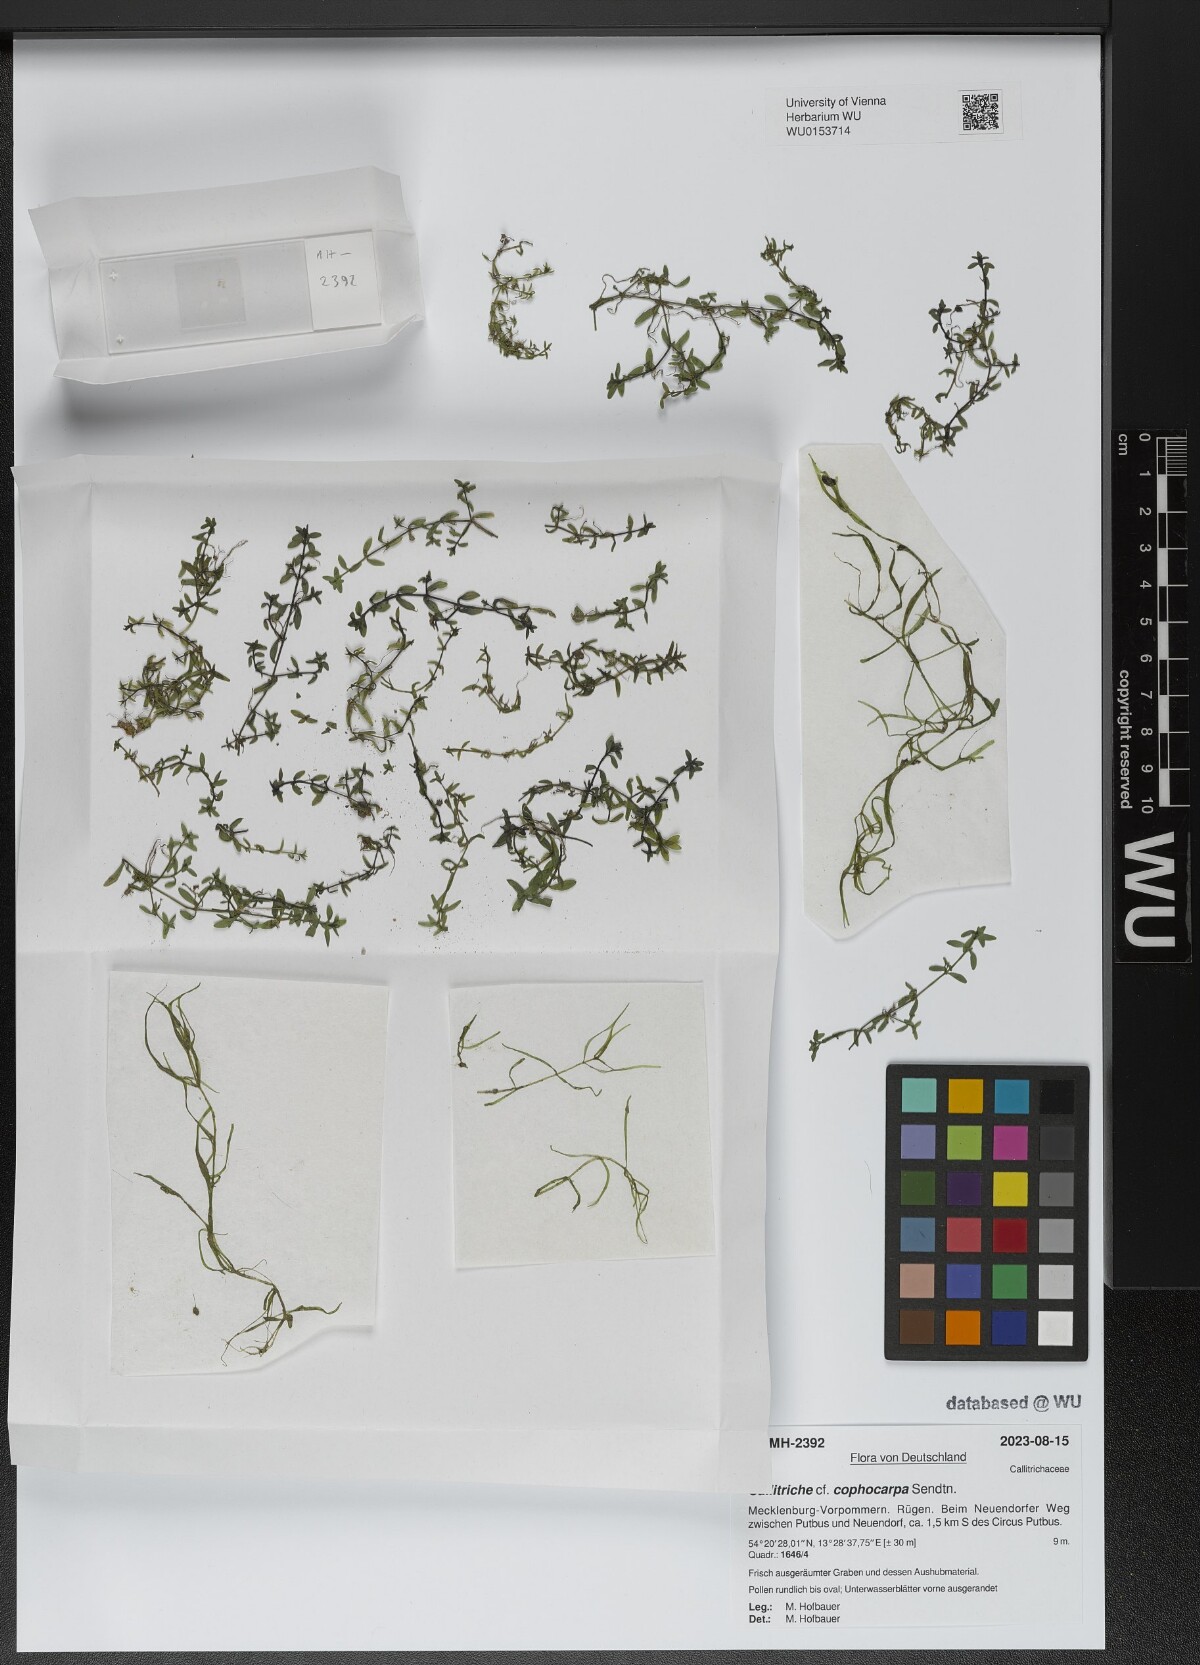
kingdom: Plantae
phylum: Tracheophyta
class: Magnoliopsida
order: Lamiales
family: Plantaginaceae
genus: Callitriche
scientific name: Callitriche cophocarpa
